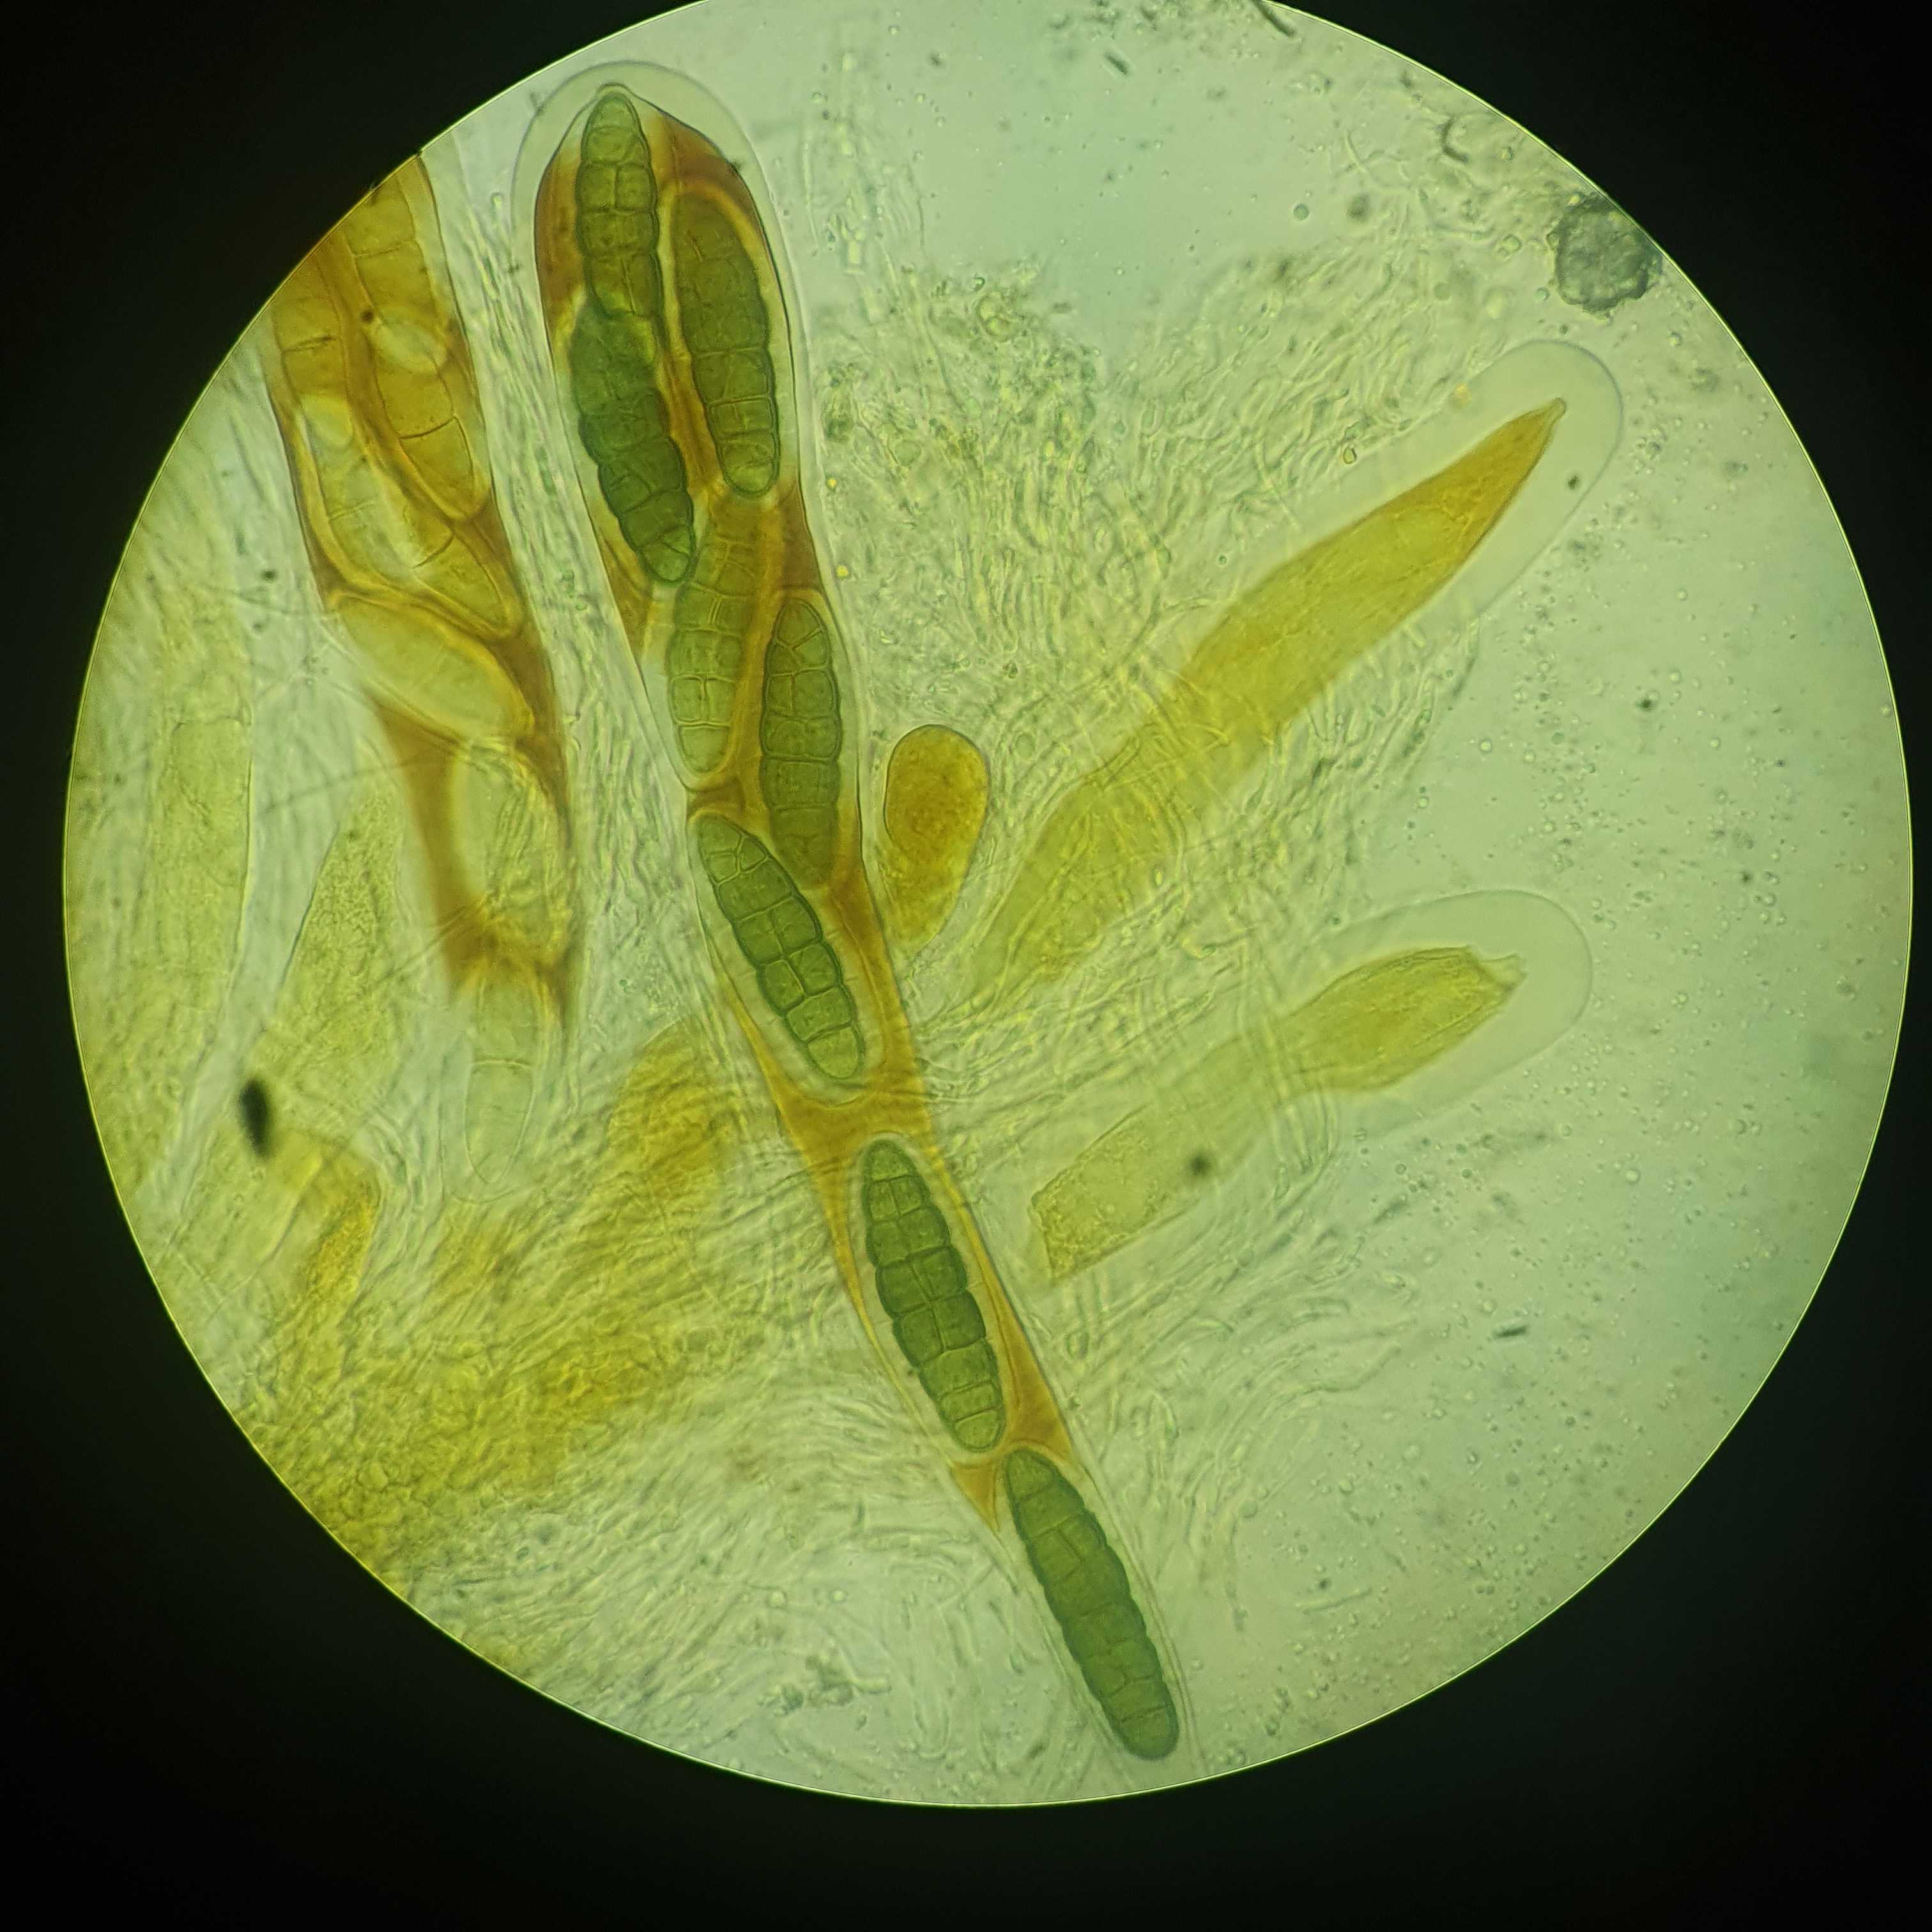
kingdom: Fungi
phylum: Ascomycota
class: Dothideomycetes
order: Pleosporales
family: Pleomassariaceae
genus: Pleomassaria
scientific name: Pleomassaria siparia
